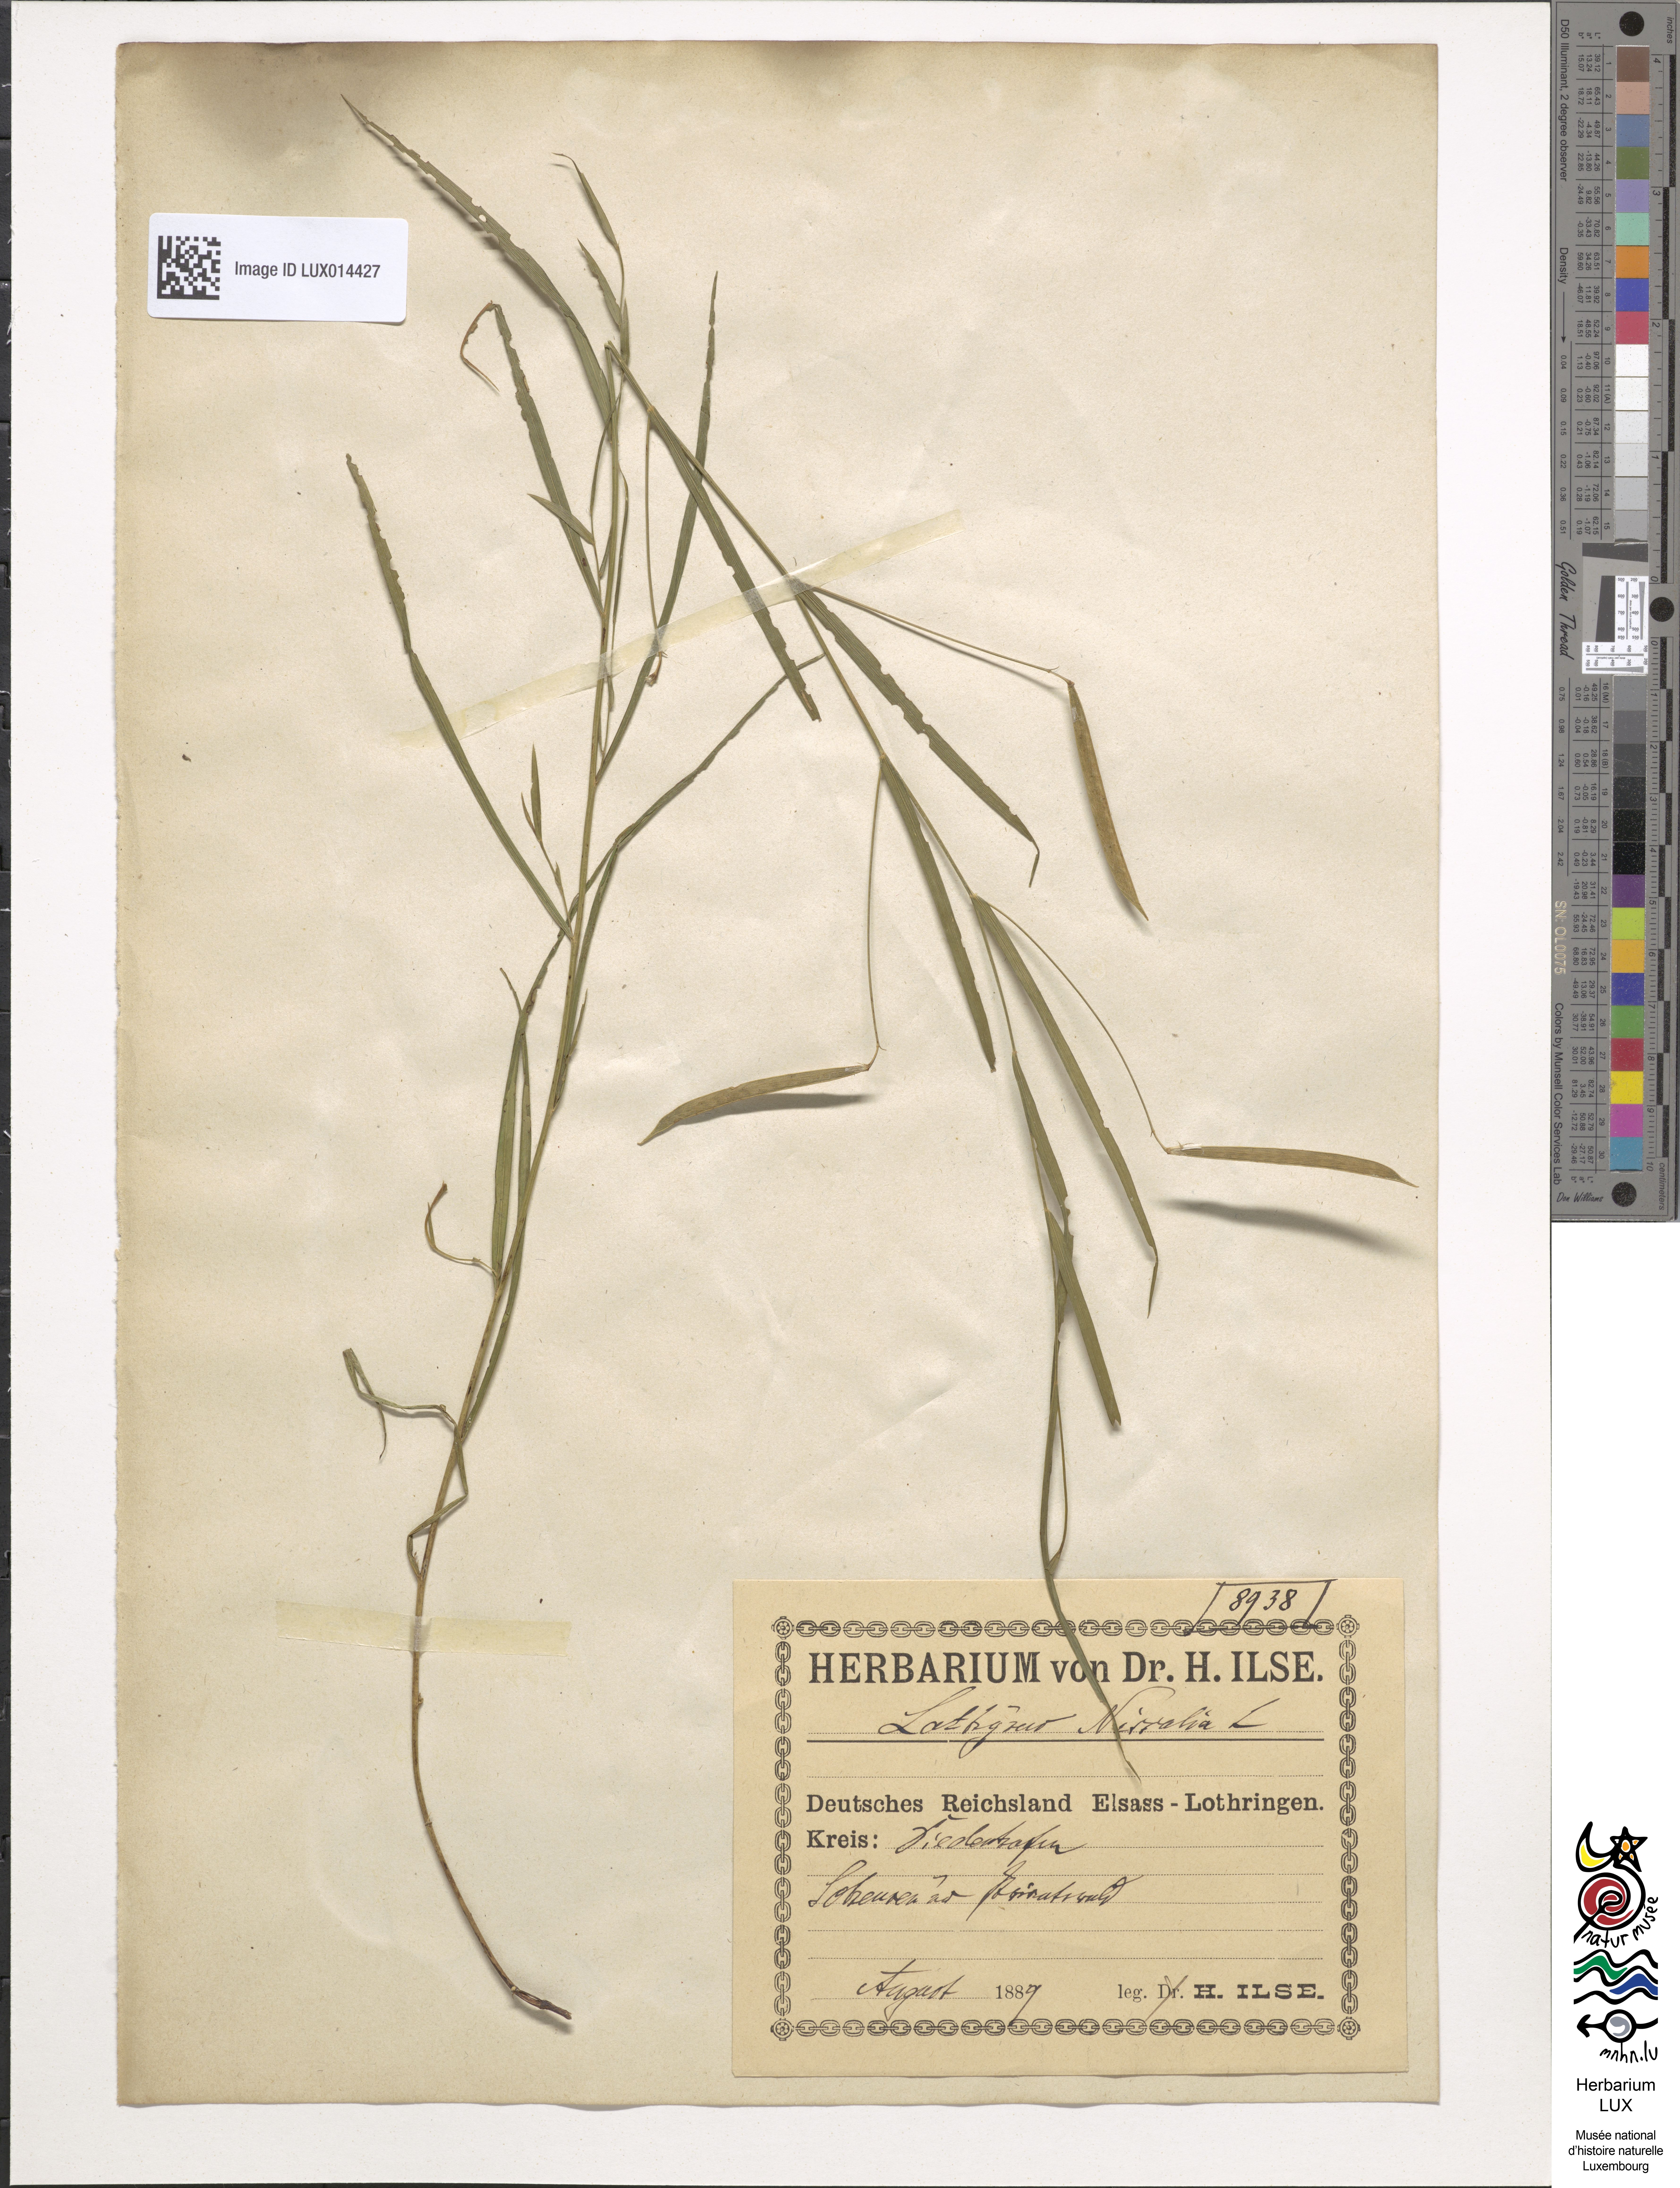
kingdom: Plantae
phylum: Tracheophyta
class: Magnoliopsida
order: Fabales
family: Fabaceae
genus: Lathyrus
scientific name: Lathyrus nissolia
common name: Grass vetchling
